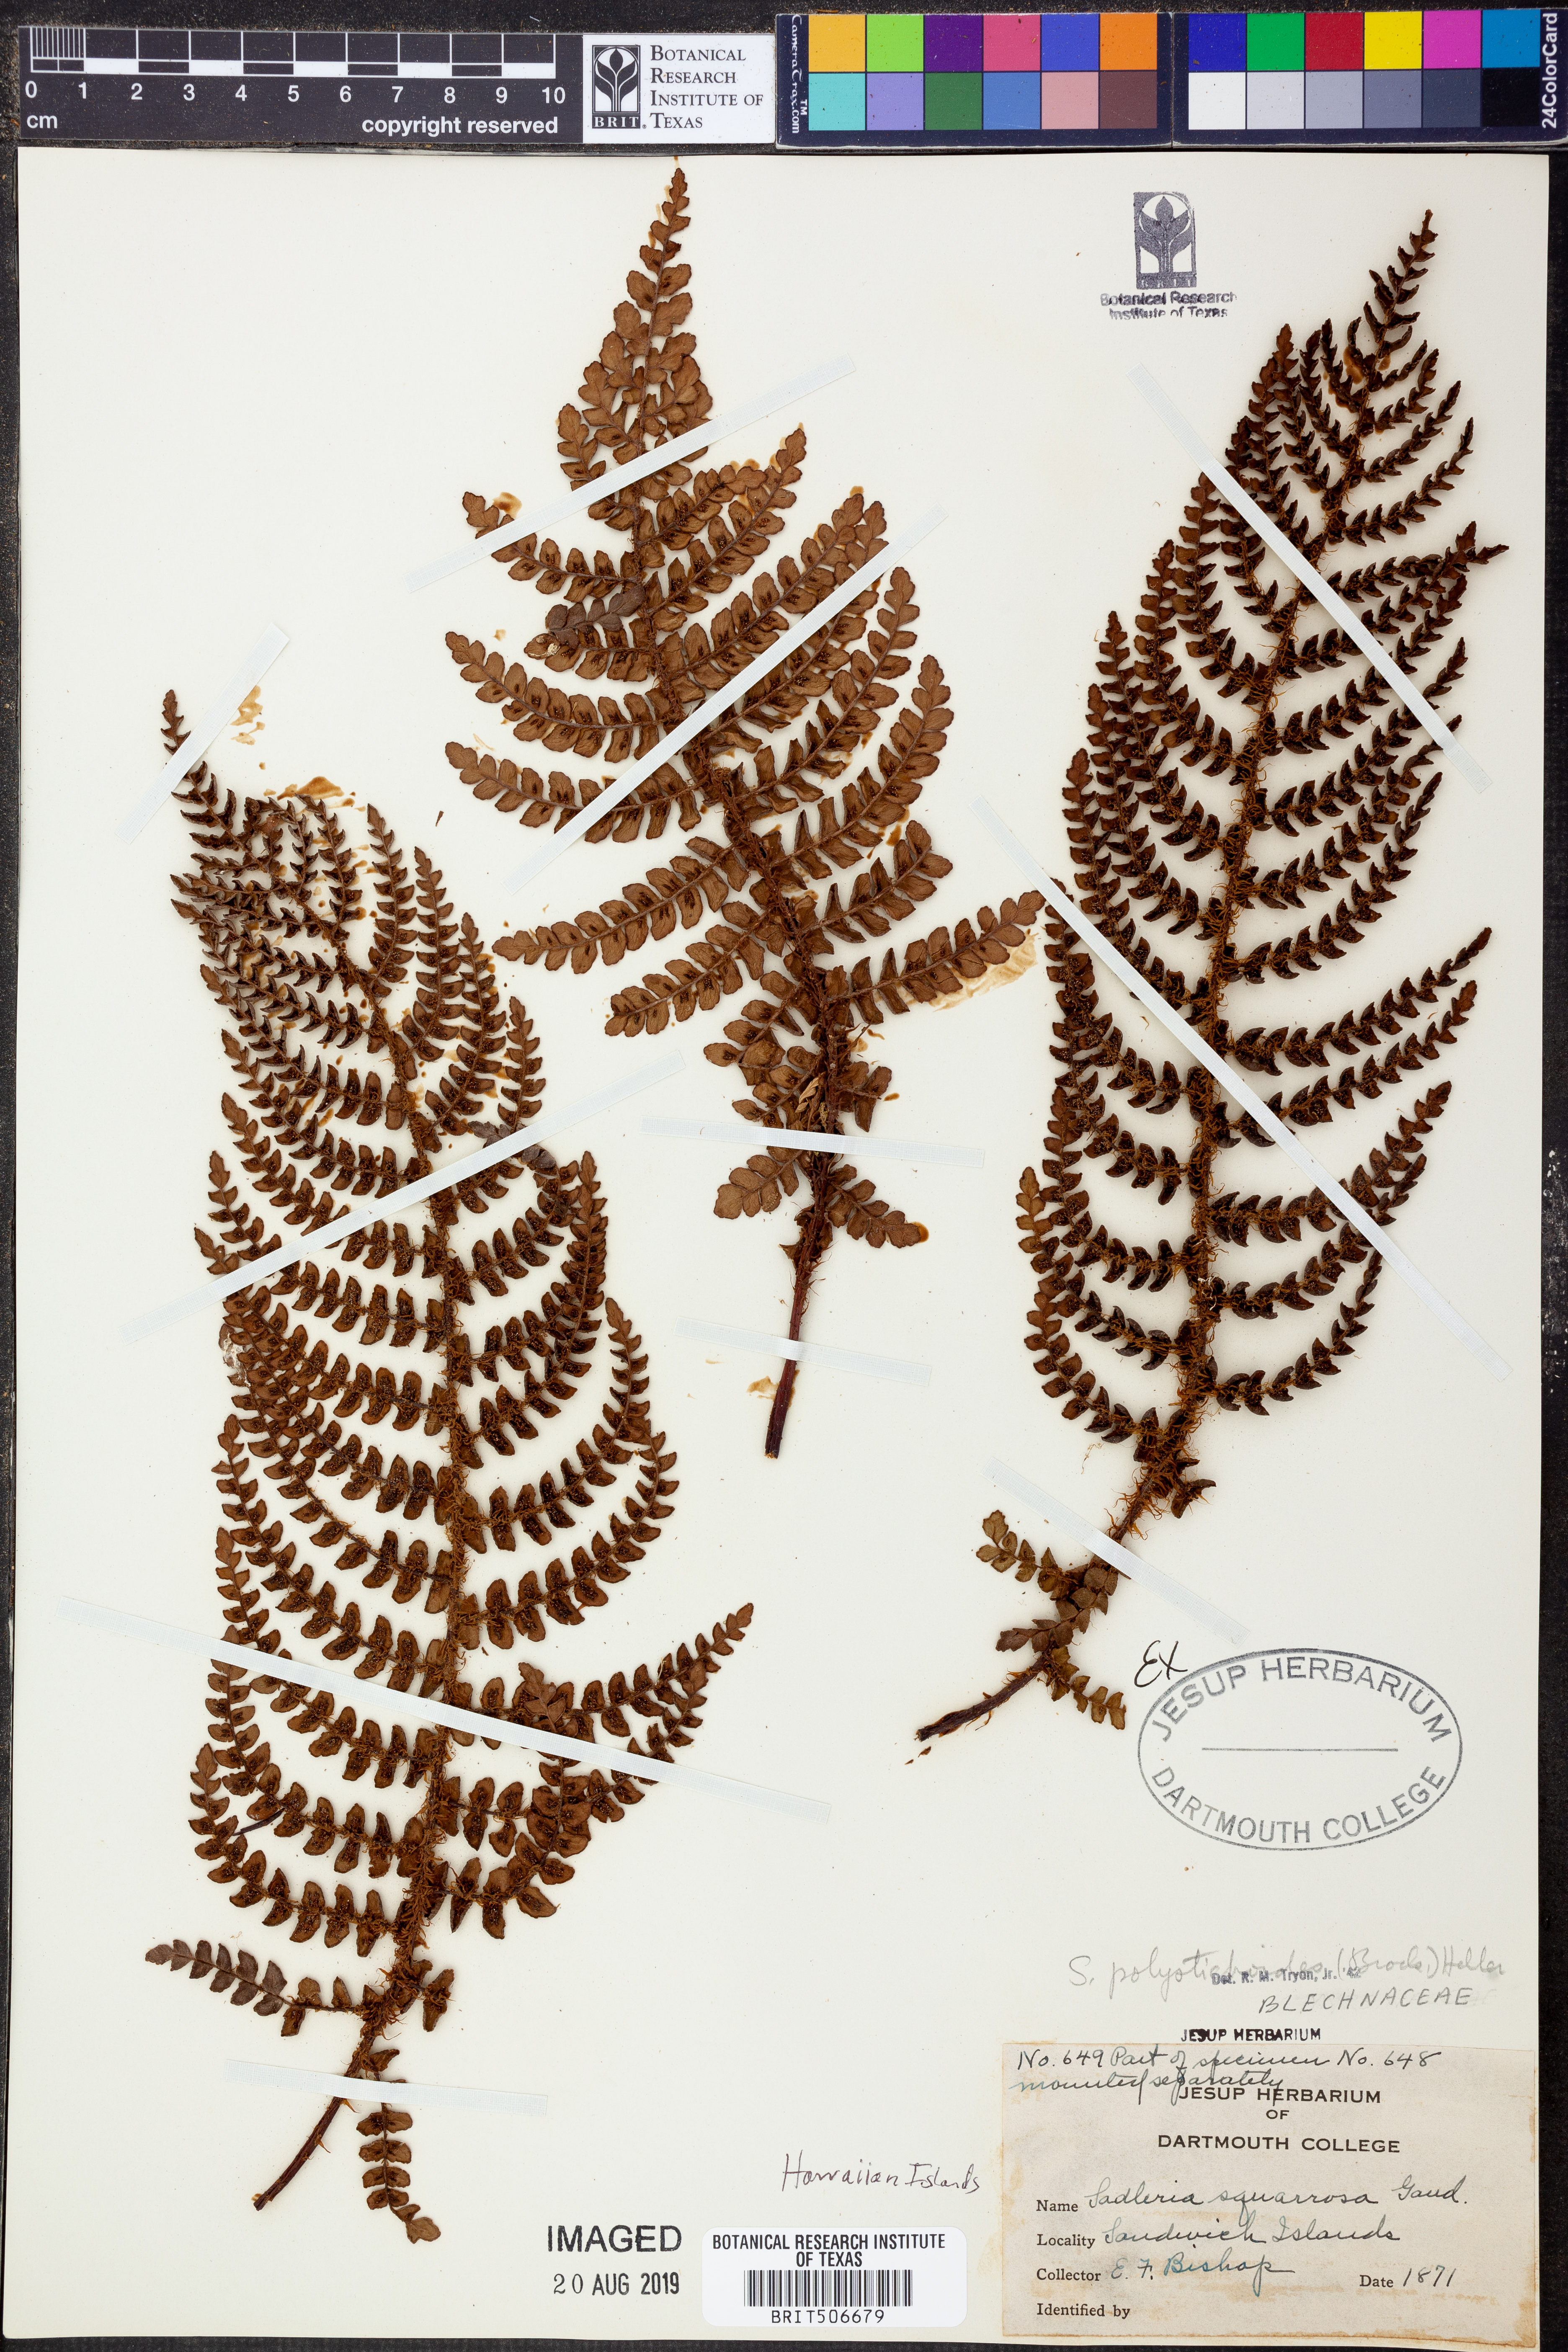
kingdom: Plantae
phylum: Tracheophyta
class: Polypodiopsida
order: Polypodiales
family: Blechnaceae
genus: Sadleria
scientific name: Sadleria squarrosa
